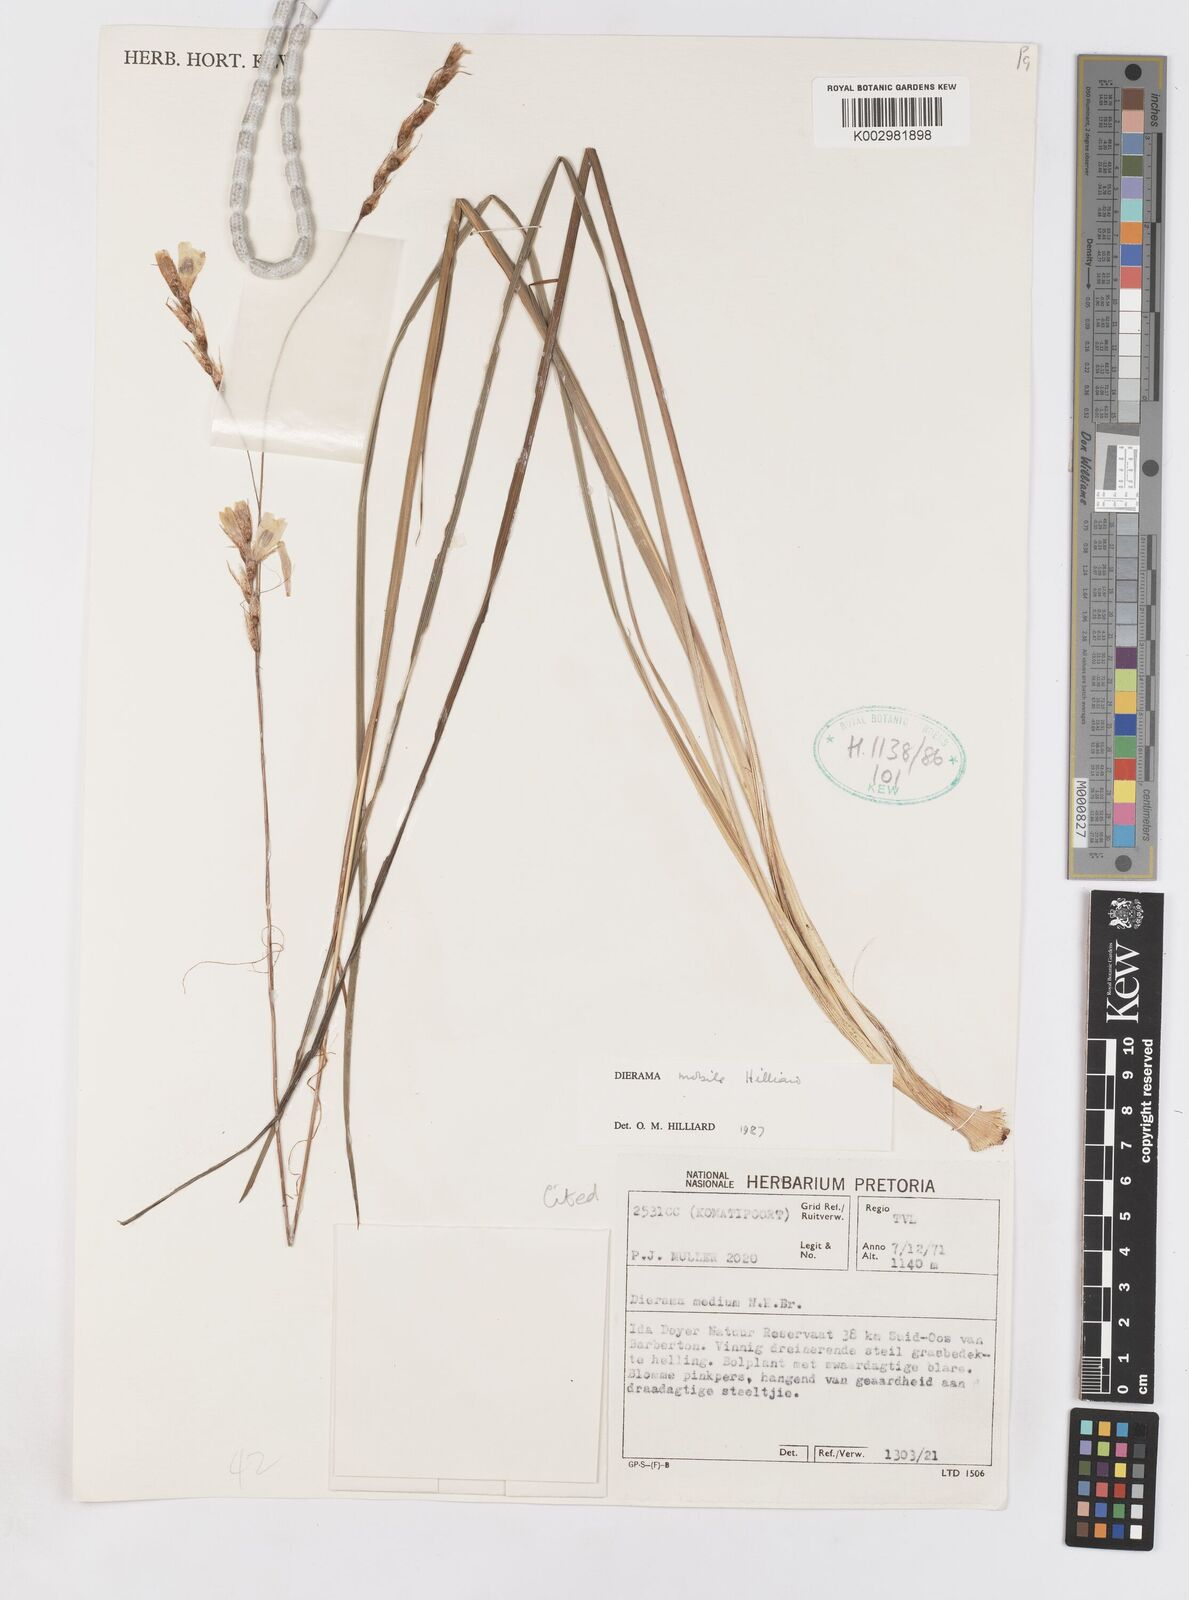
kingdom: Plantae
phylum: Tracheophyta
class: Liliopsida
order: Asparagales
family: Iridaceae
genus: Dierama
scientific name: Dierama mobile
